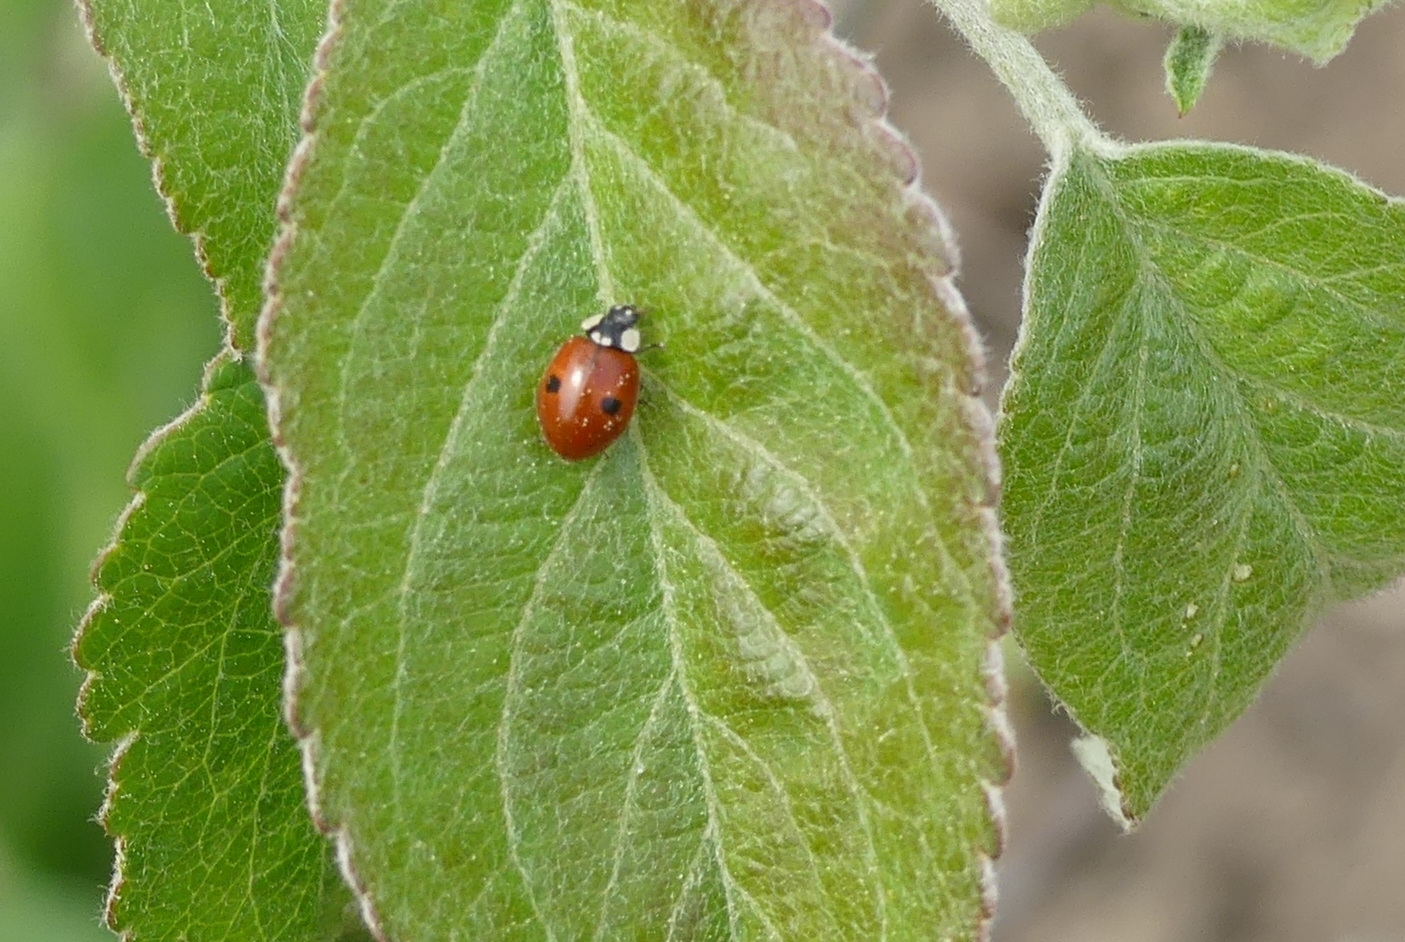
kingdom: Animalia
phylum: Arthropoda
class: Insecta
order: Coleoptera
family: Coccinellidae
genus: Adalia
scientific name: Adalia bipunctata
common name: Toplettet mariehøne
